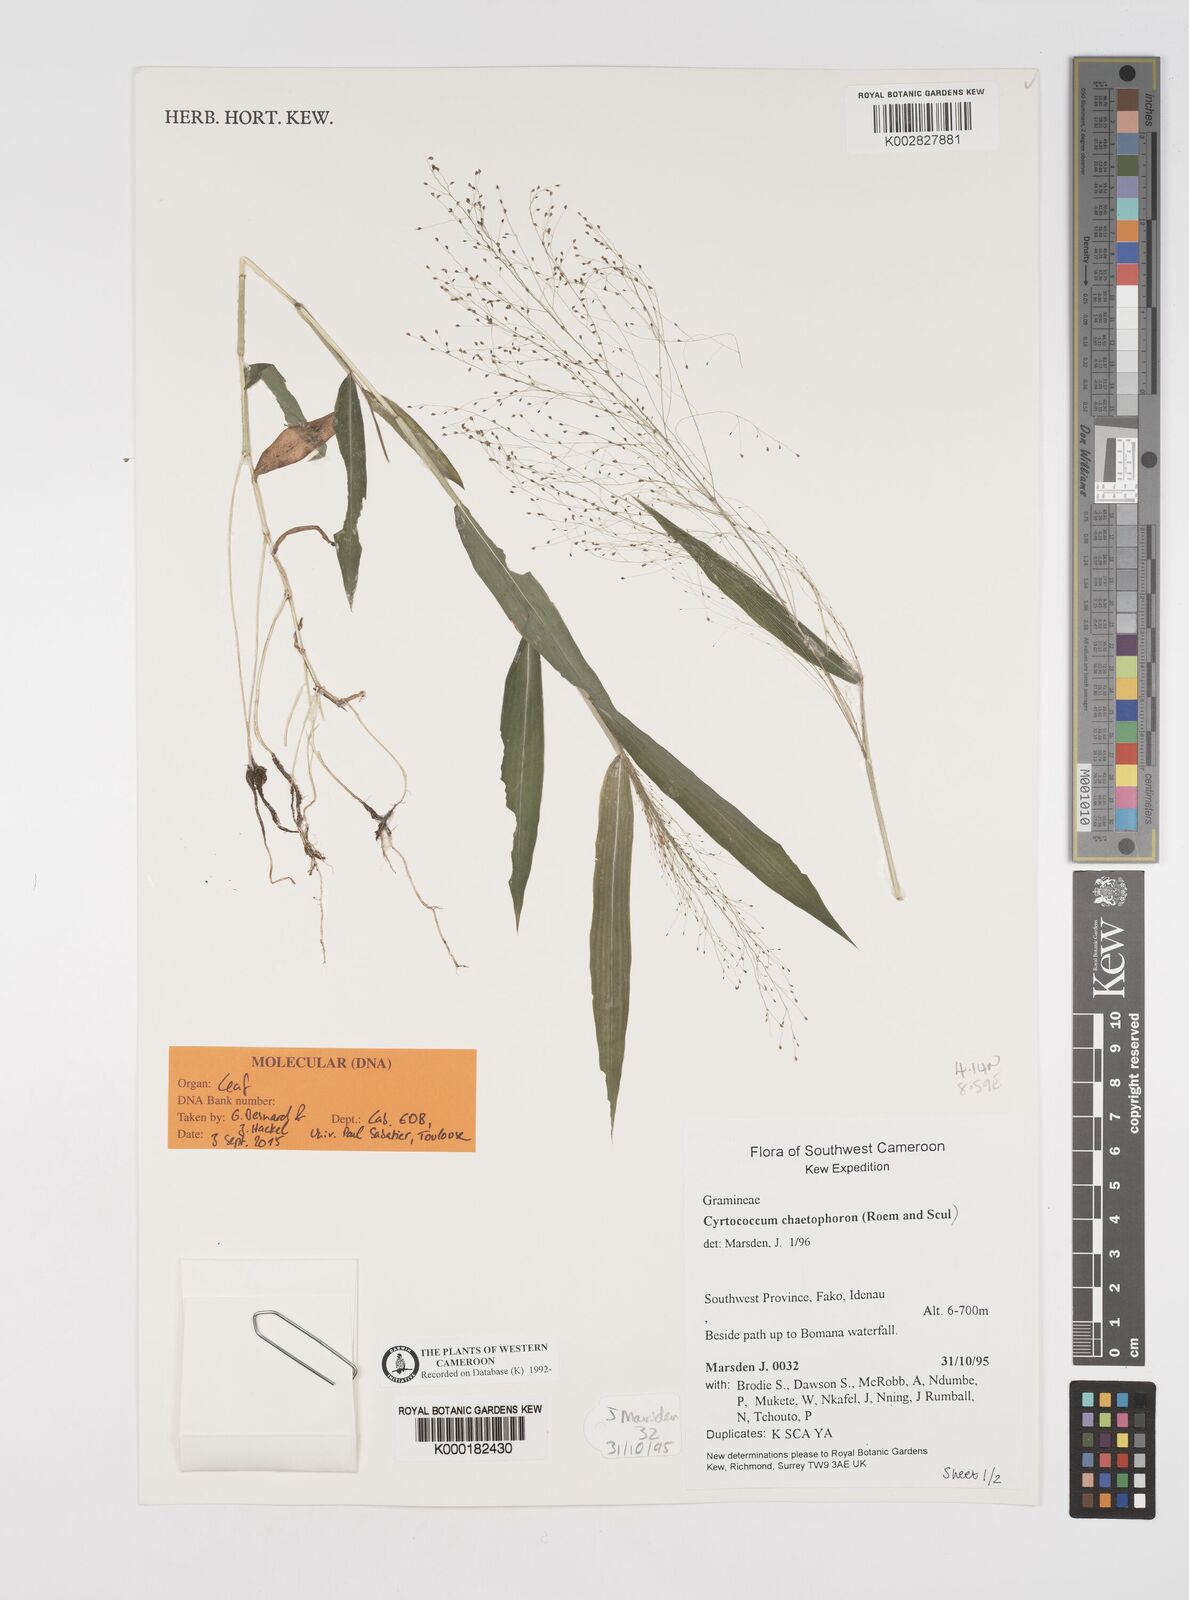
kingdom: Plantae
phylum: Tracheophyta
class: Liliopsida
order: Poales
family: Poaceae
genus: Cyrtococcum
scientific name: Cyrtococcum chaetophoron
